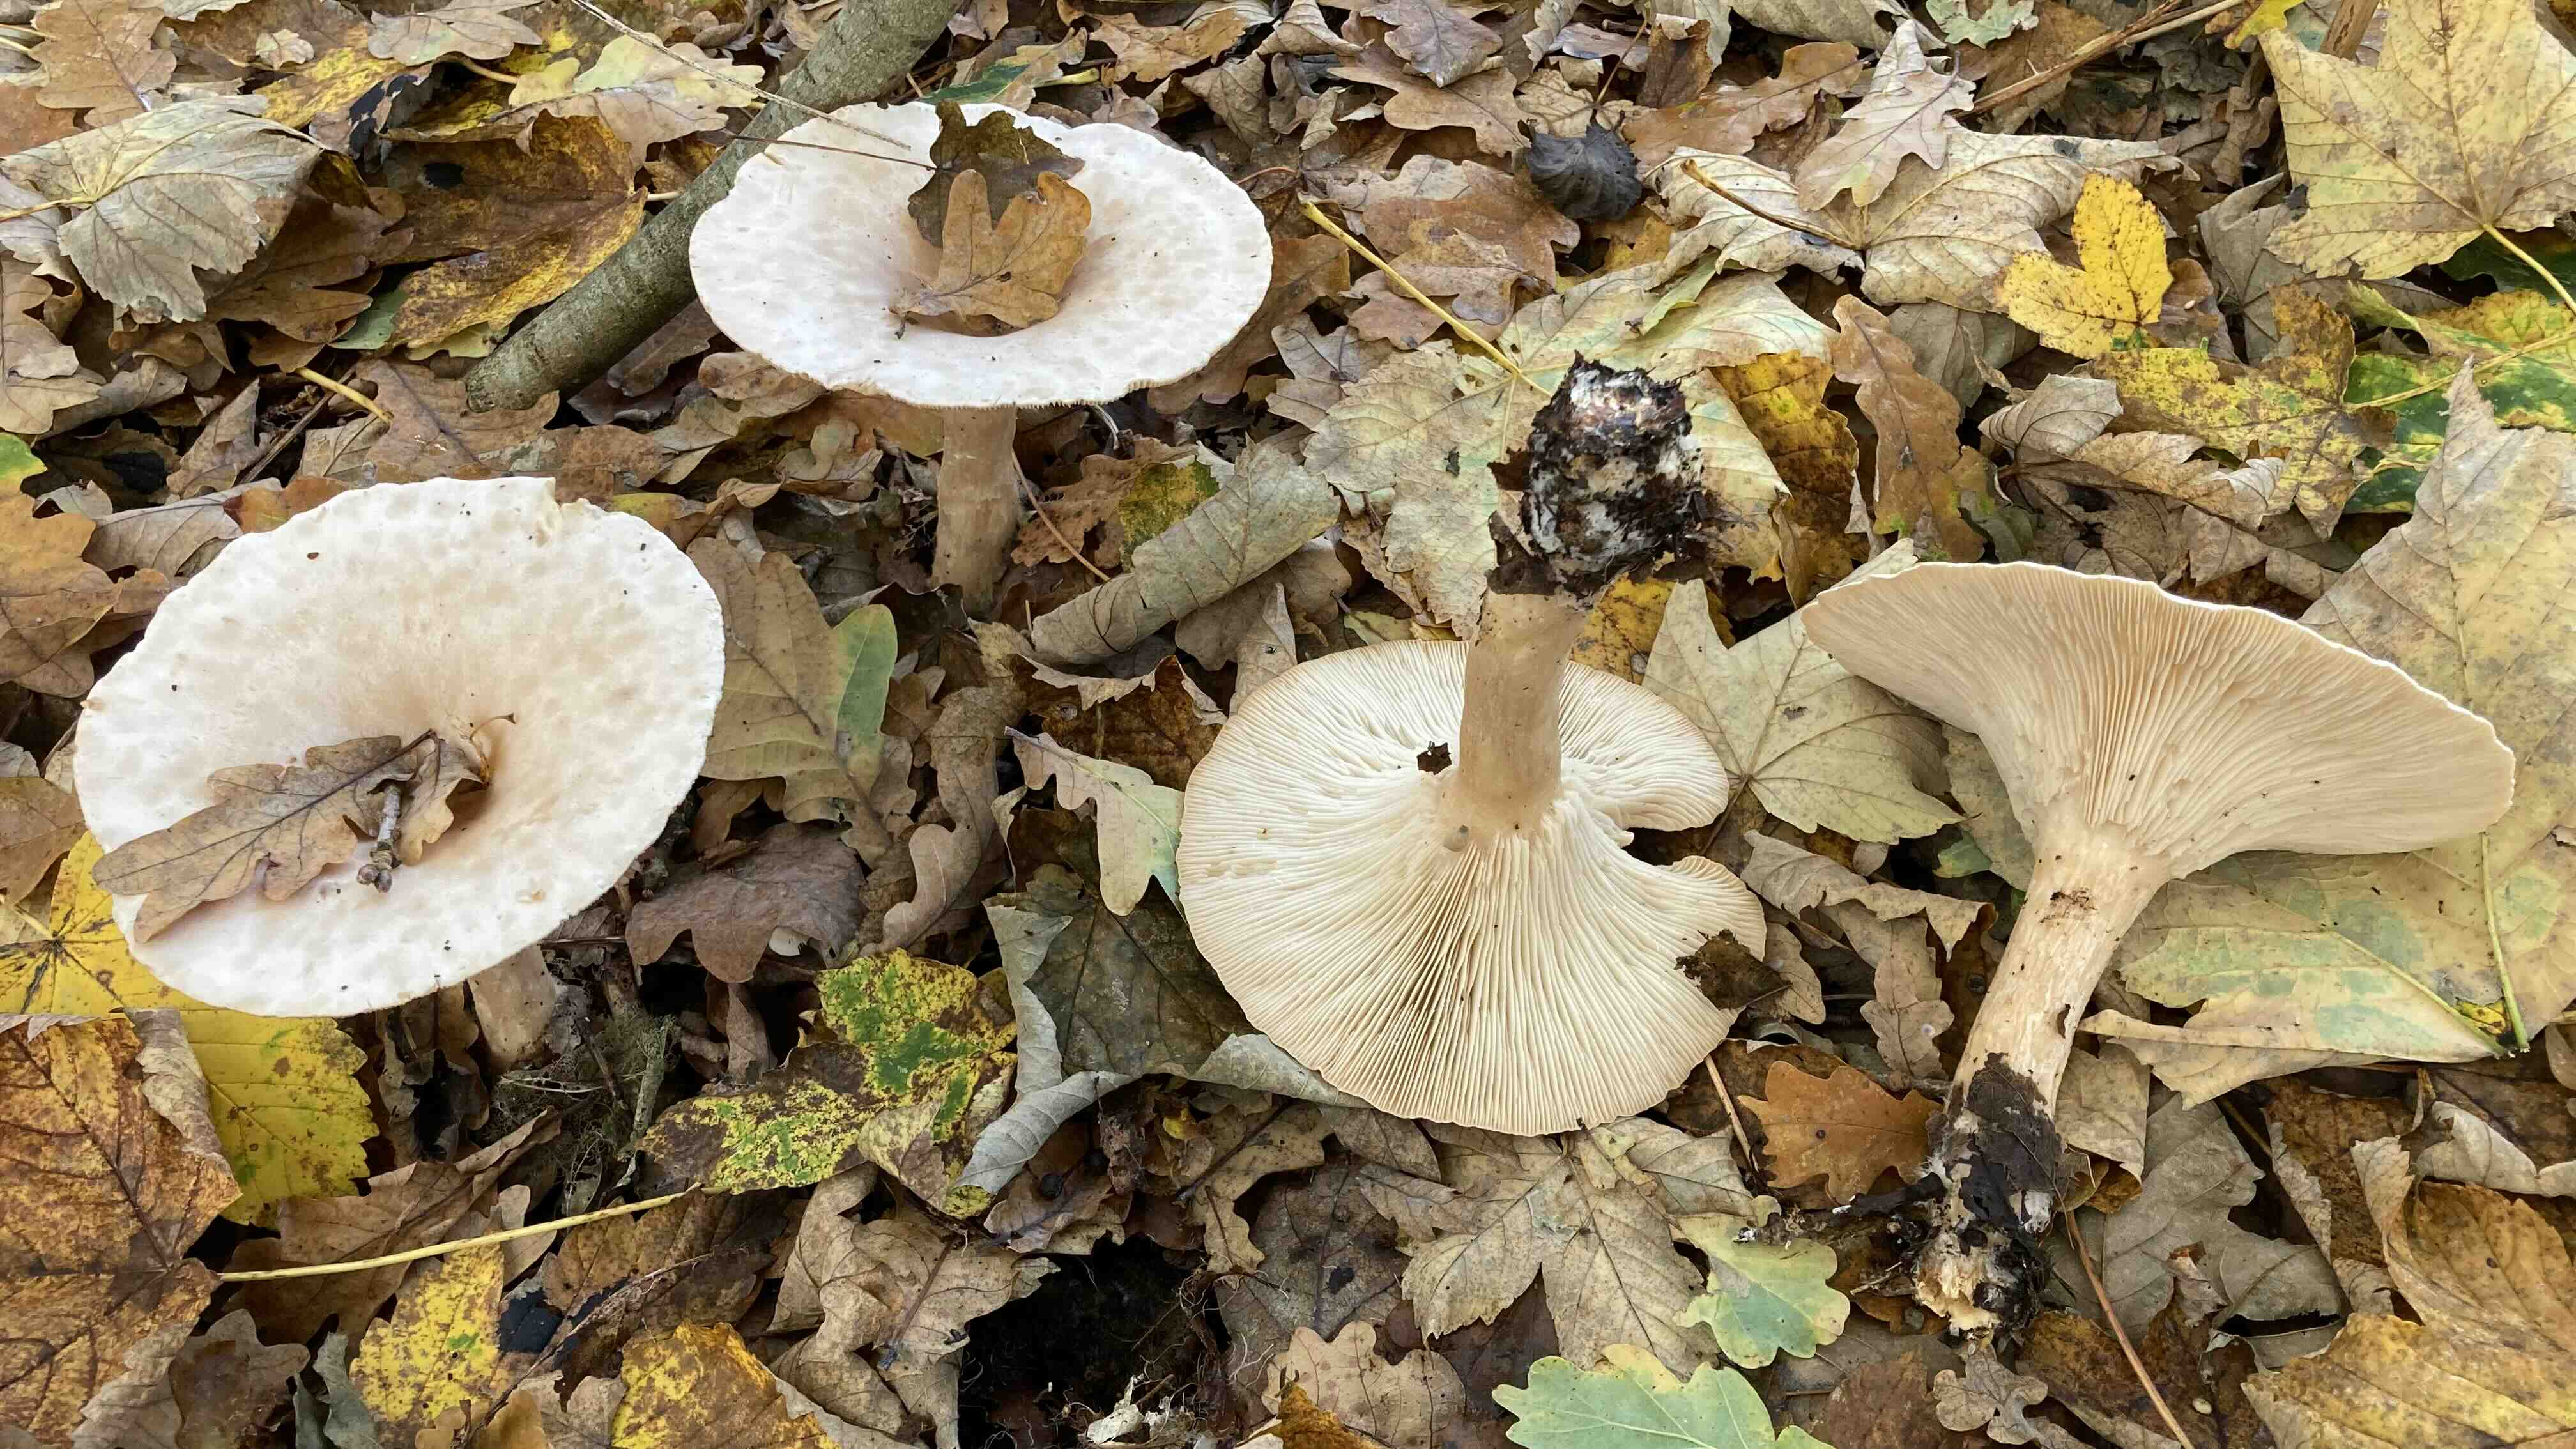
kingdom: Fungi
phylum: Basidiomycota
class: Agaricomycetes
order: Agaricales
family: Tricholomataceae
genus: Infundibulicybe
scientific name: Infundibulicybe geotropa
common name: stor tragthat
